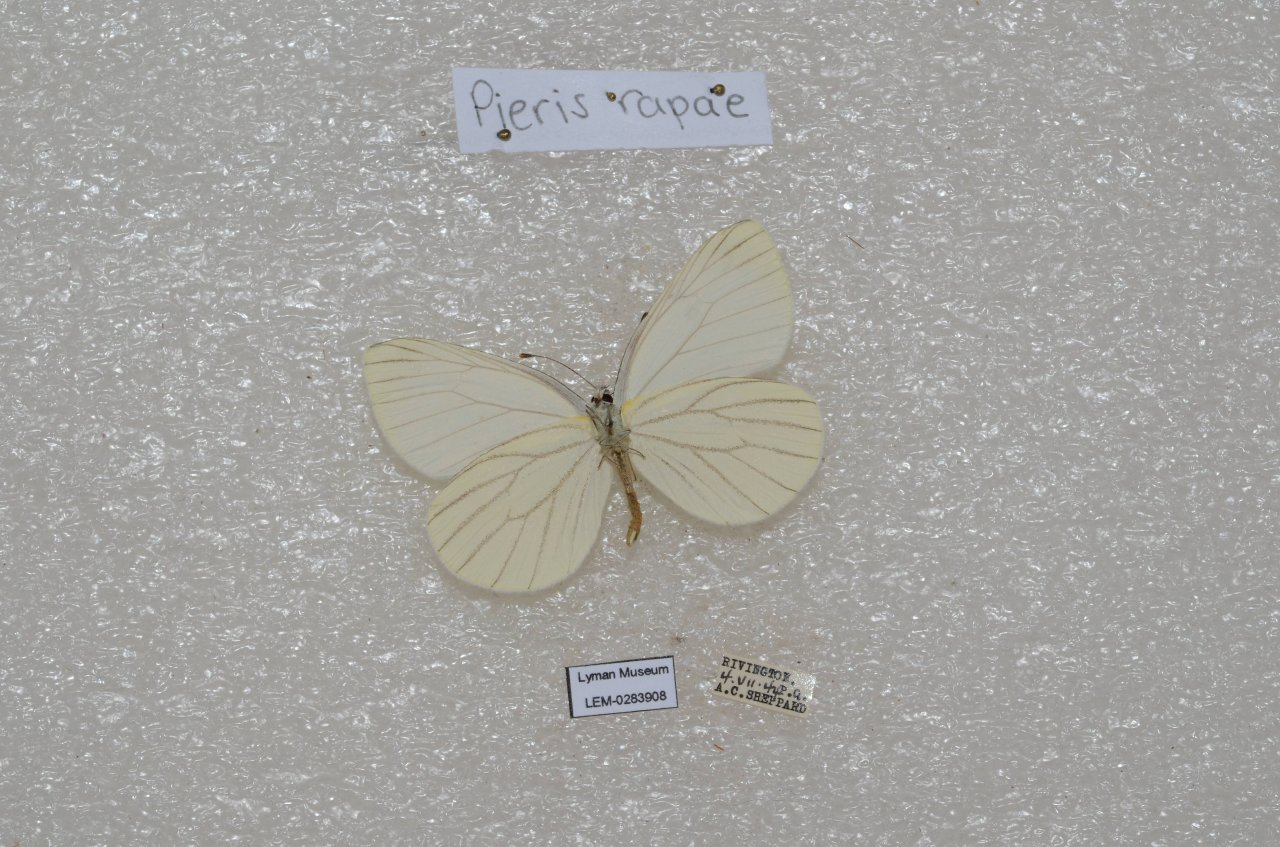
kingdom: Animalia
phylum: Arthropoda
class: Insecta
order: Lepidoptera
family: Pieridae
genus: Pieris
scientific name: Pieris oleracea
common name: Mustard White
